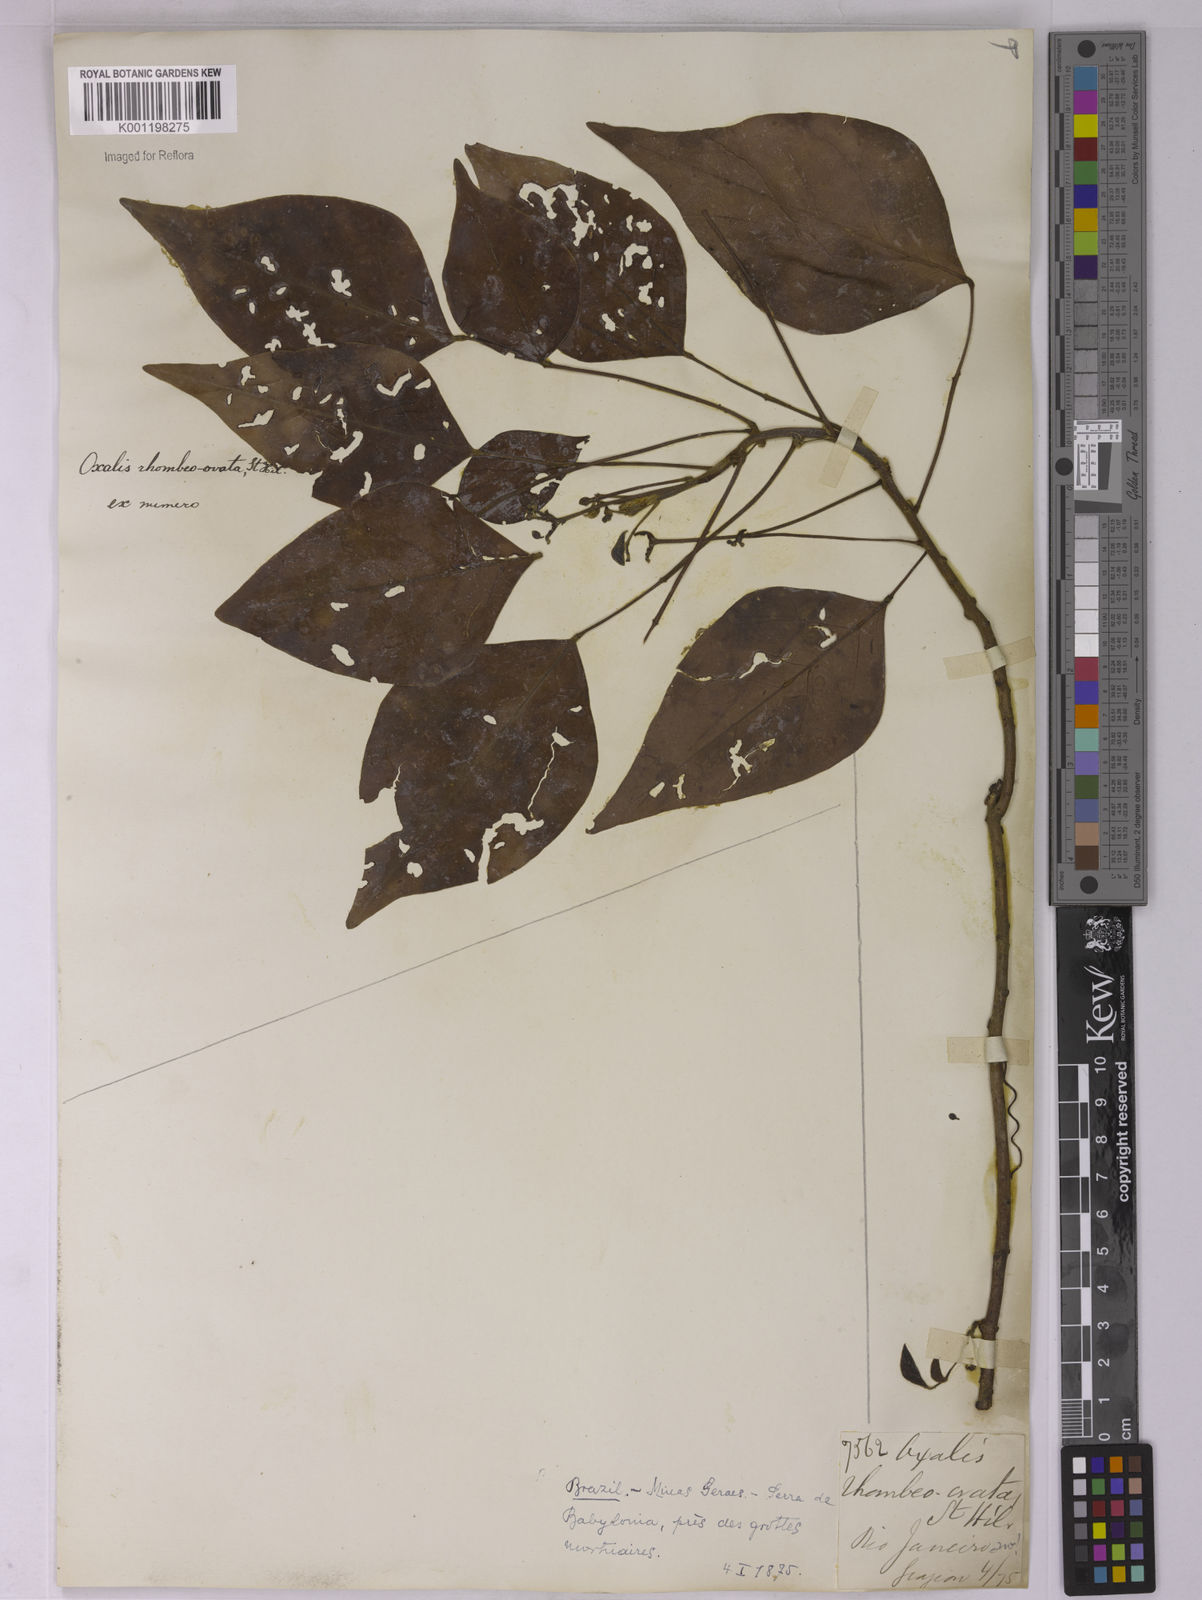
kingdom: Plantae
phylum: Tracheophyta
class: Magnoliopsida
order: Oxalidales
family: Oxalidaceae
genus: Oxalis
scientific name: Oxalis rhombeo-ovata
